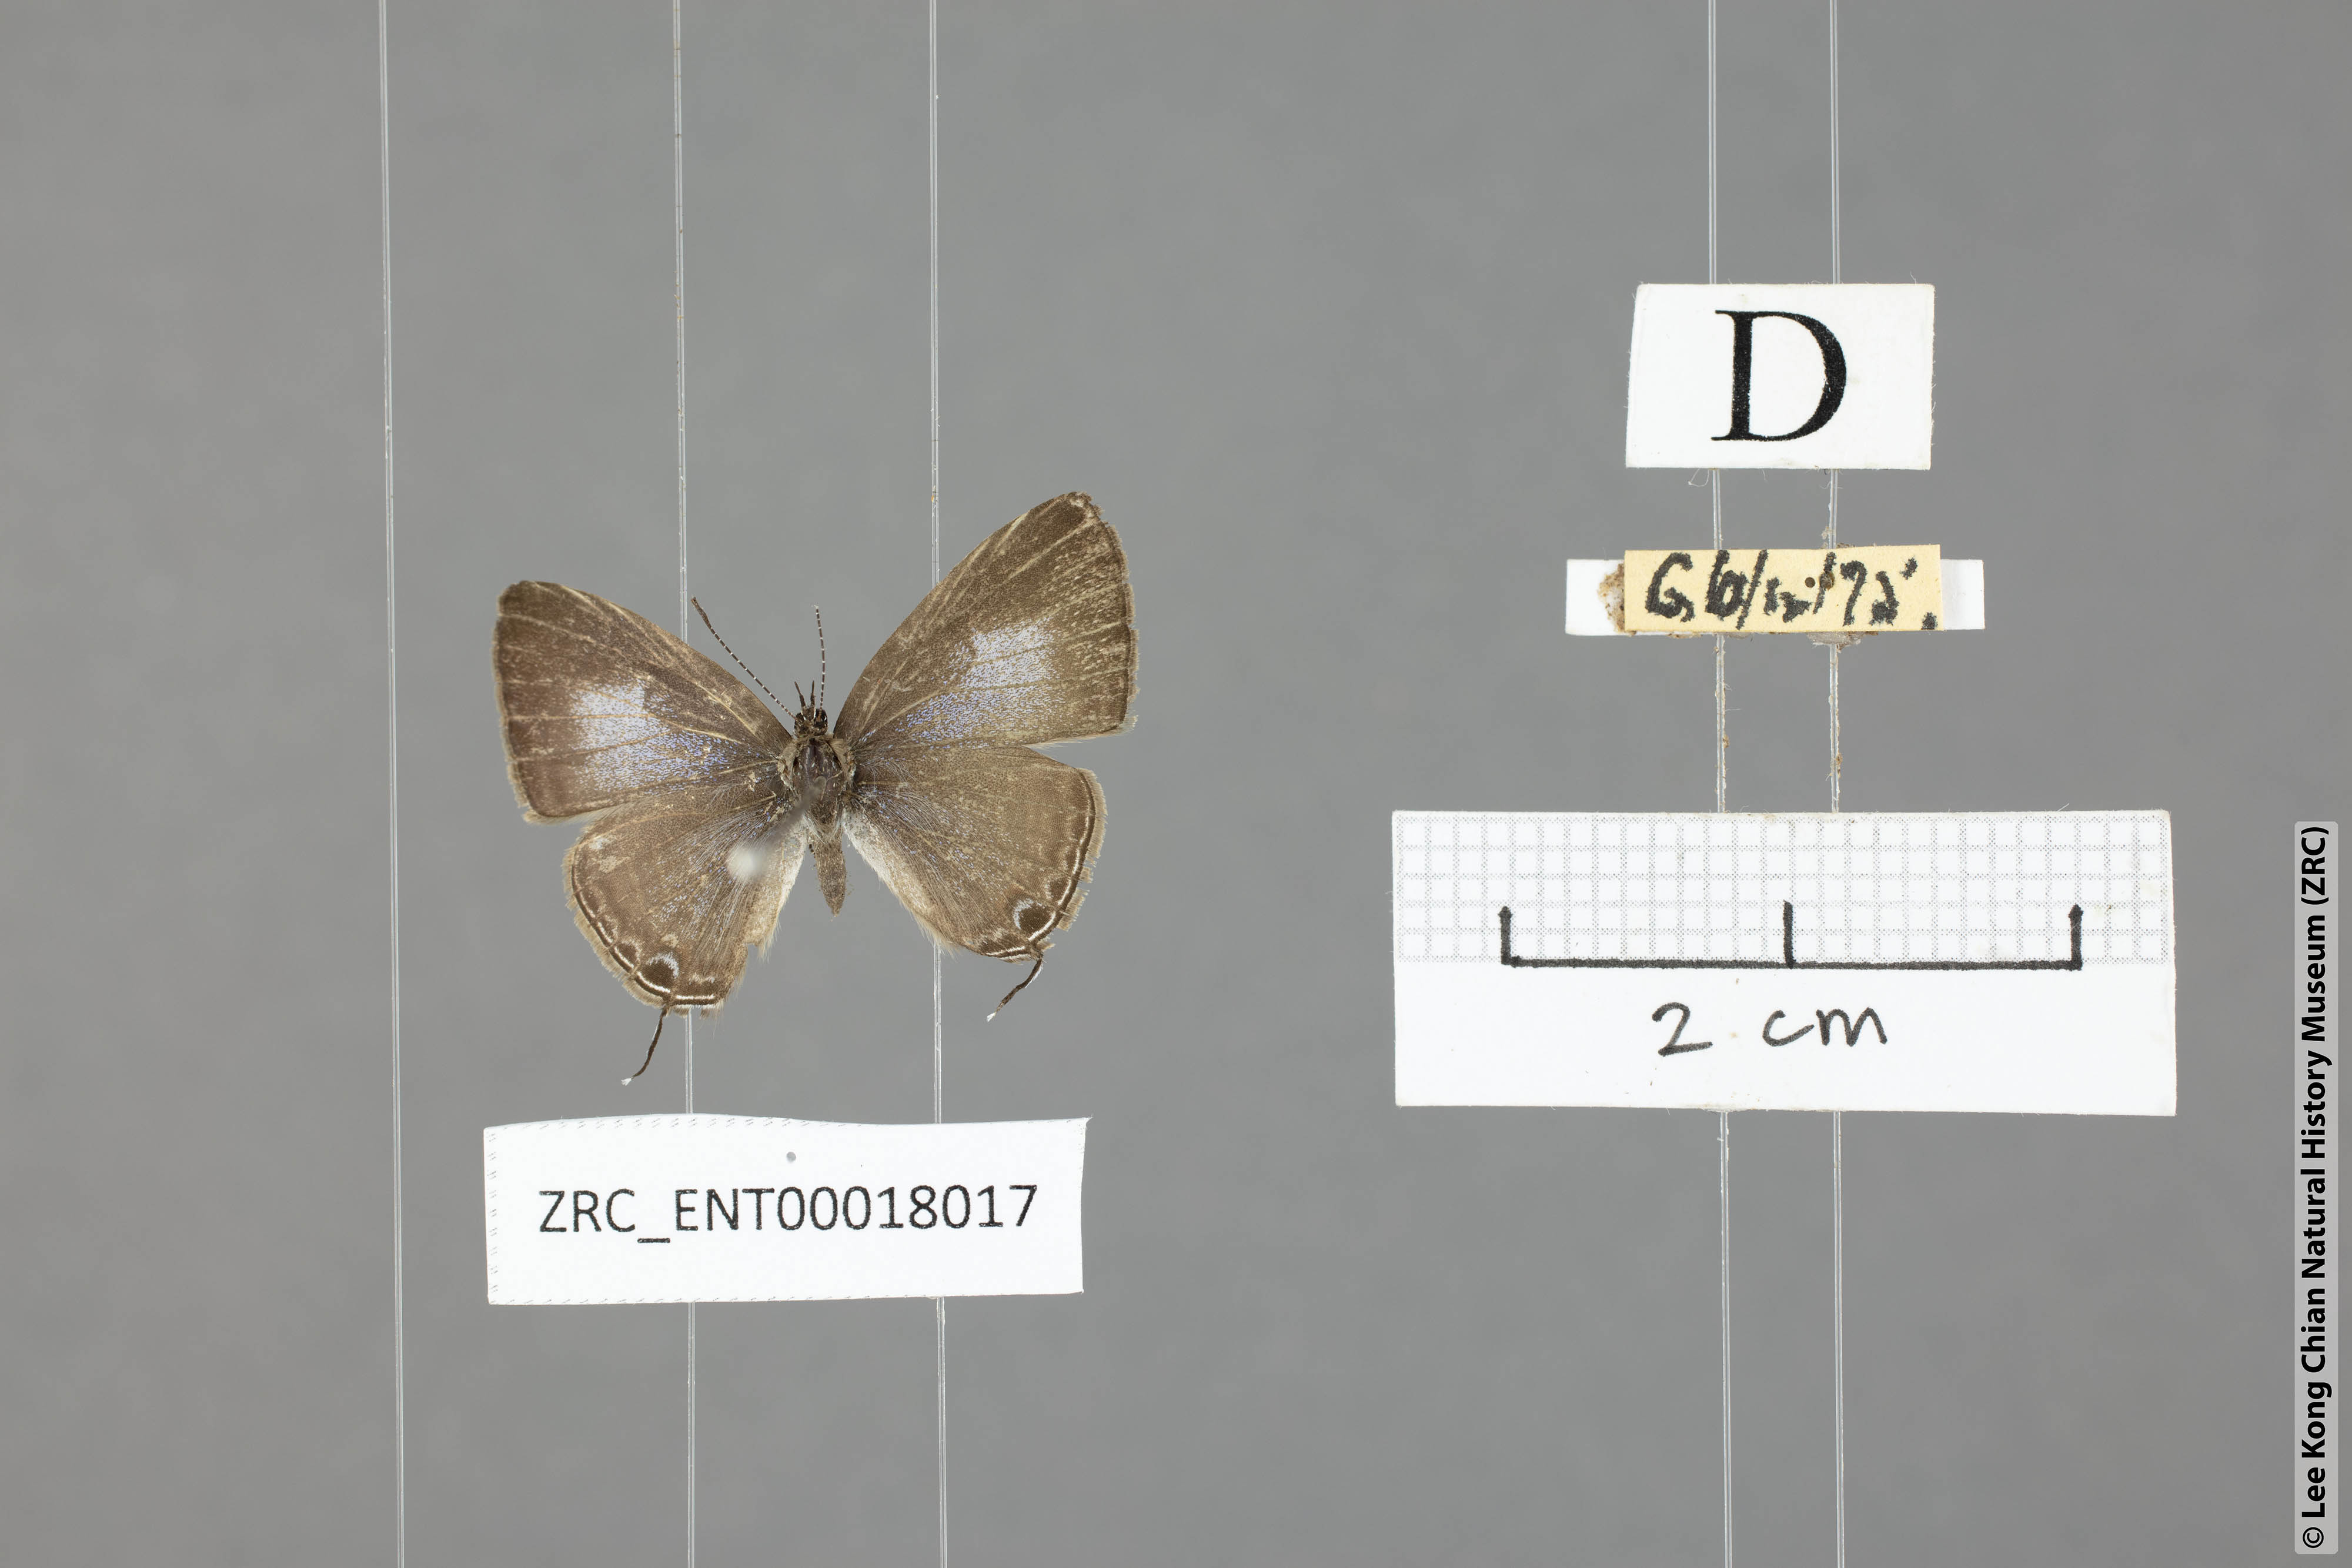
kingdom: Animalia
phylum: Arthropoda
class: Insecta
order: Lepidoptera
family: Lycaenidae
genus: Ionolyce
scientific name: Ionolyce helicon
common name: Pointed line blue
